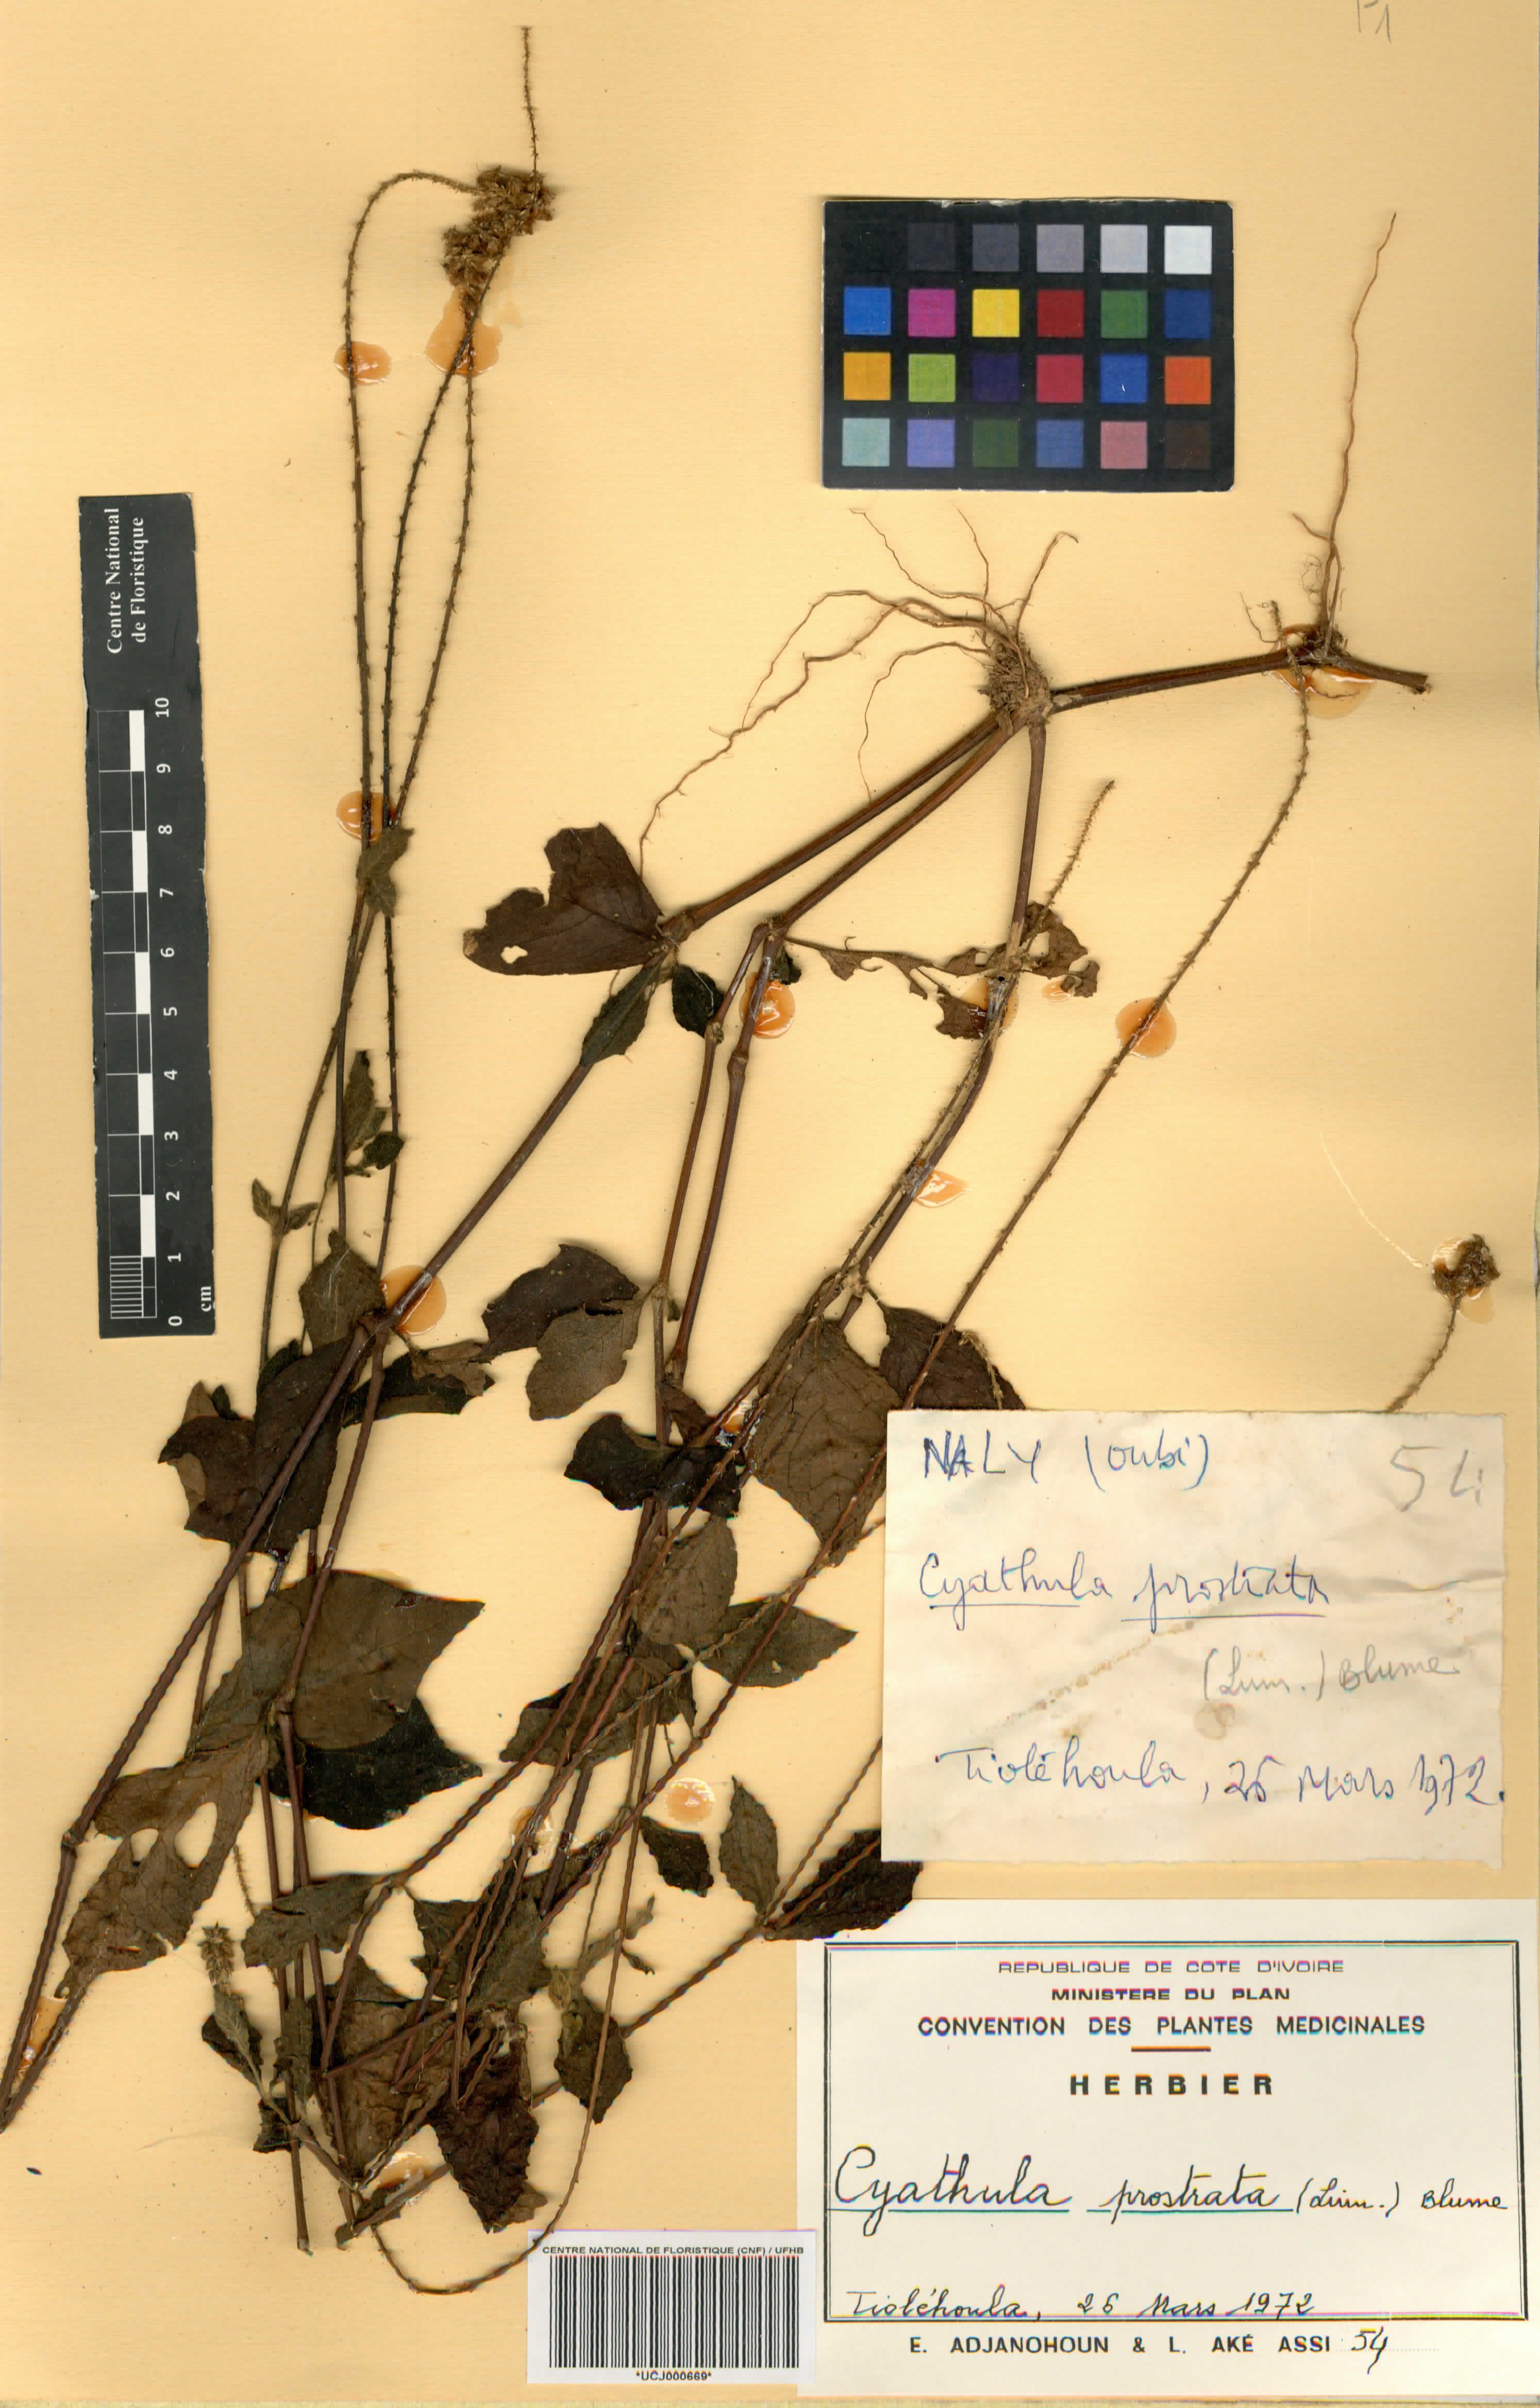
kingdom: Plantae
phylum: Tracheophyta
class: Magnoliopsida
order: Caryophyllales
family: Amaranthaceae
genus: Cyathula
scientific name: Cyathula prostrata
